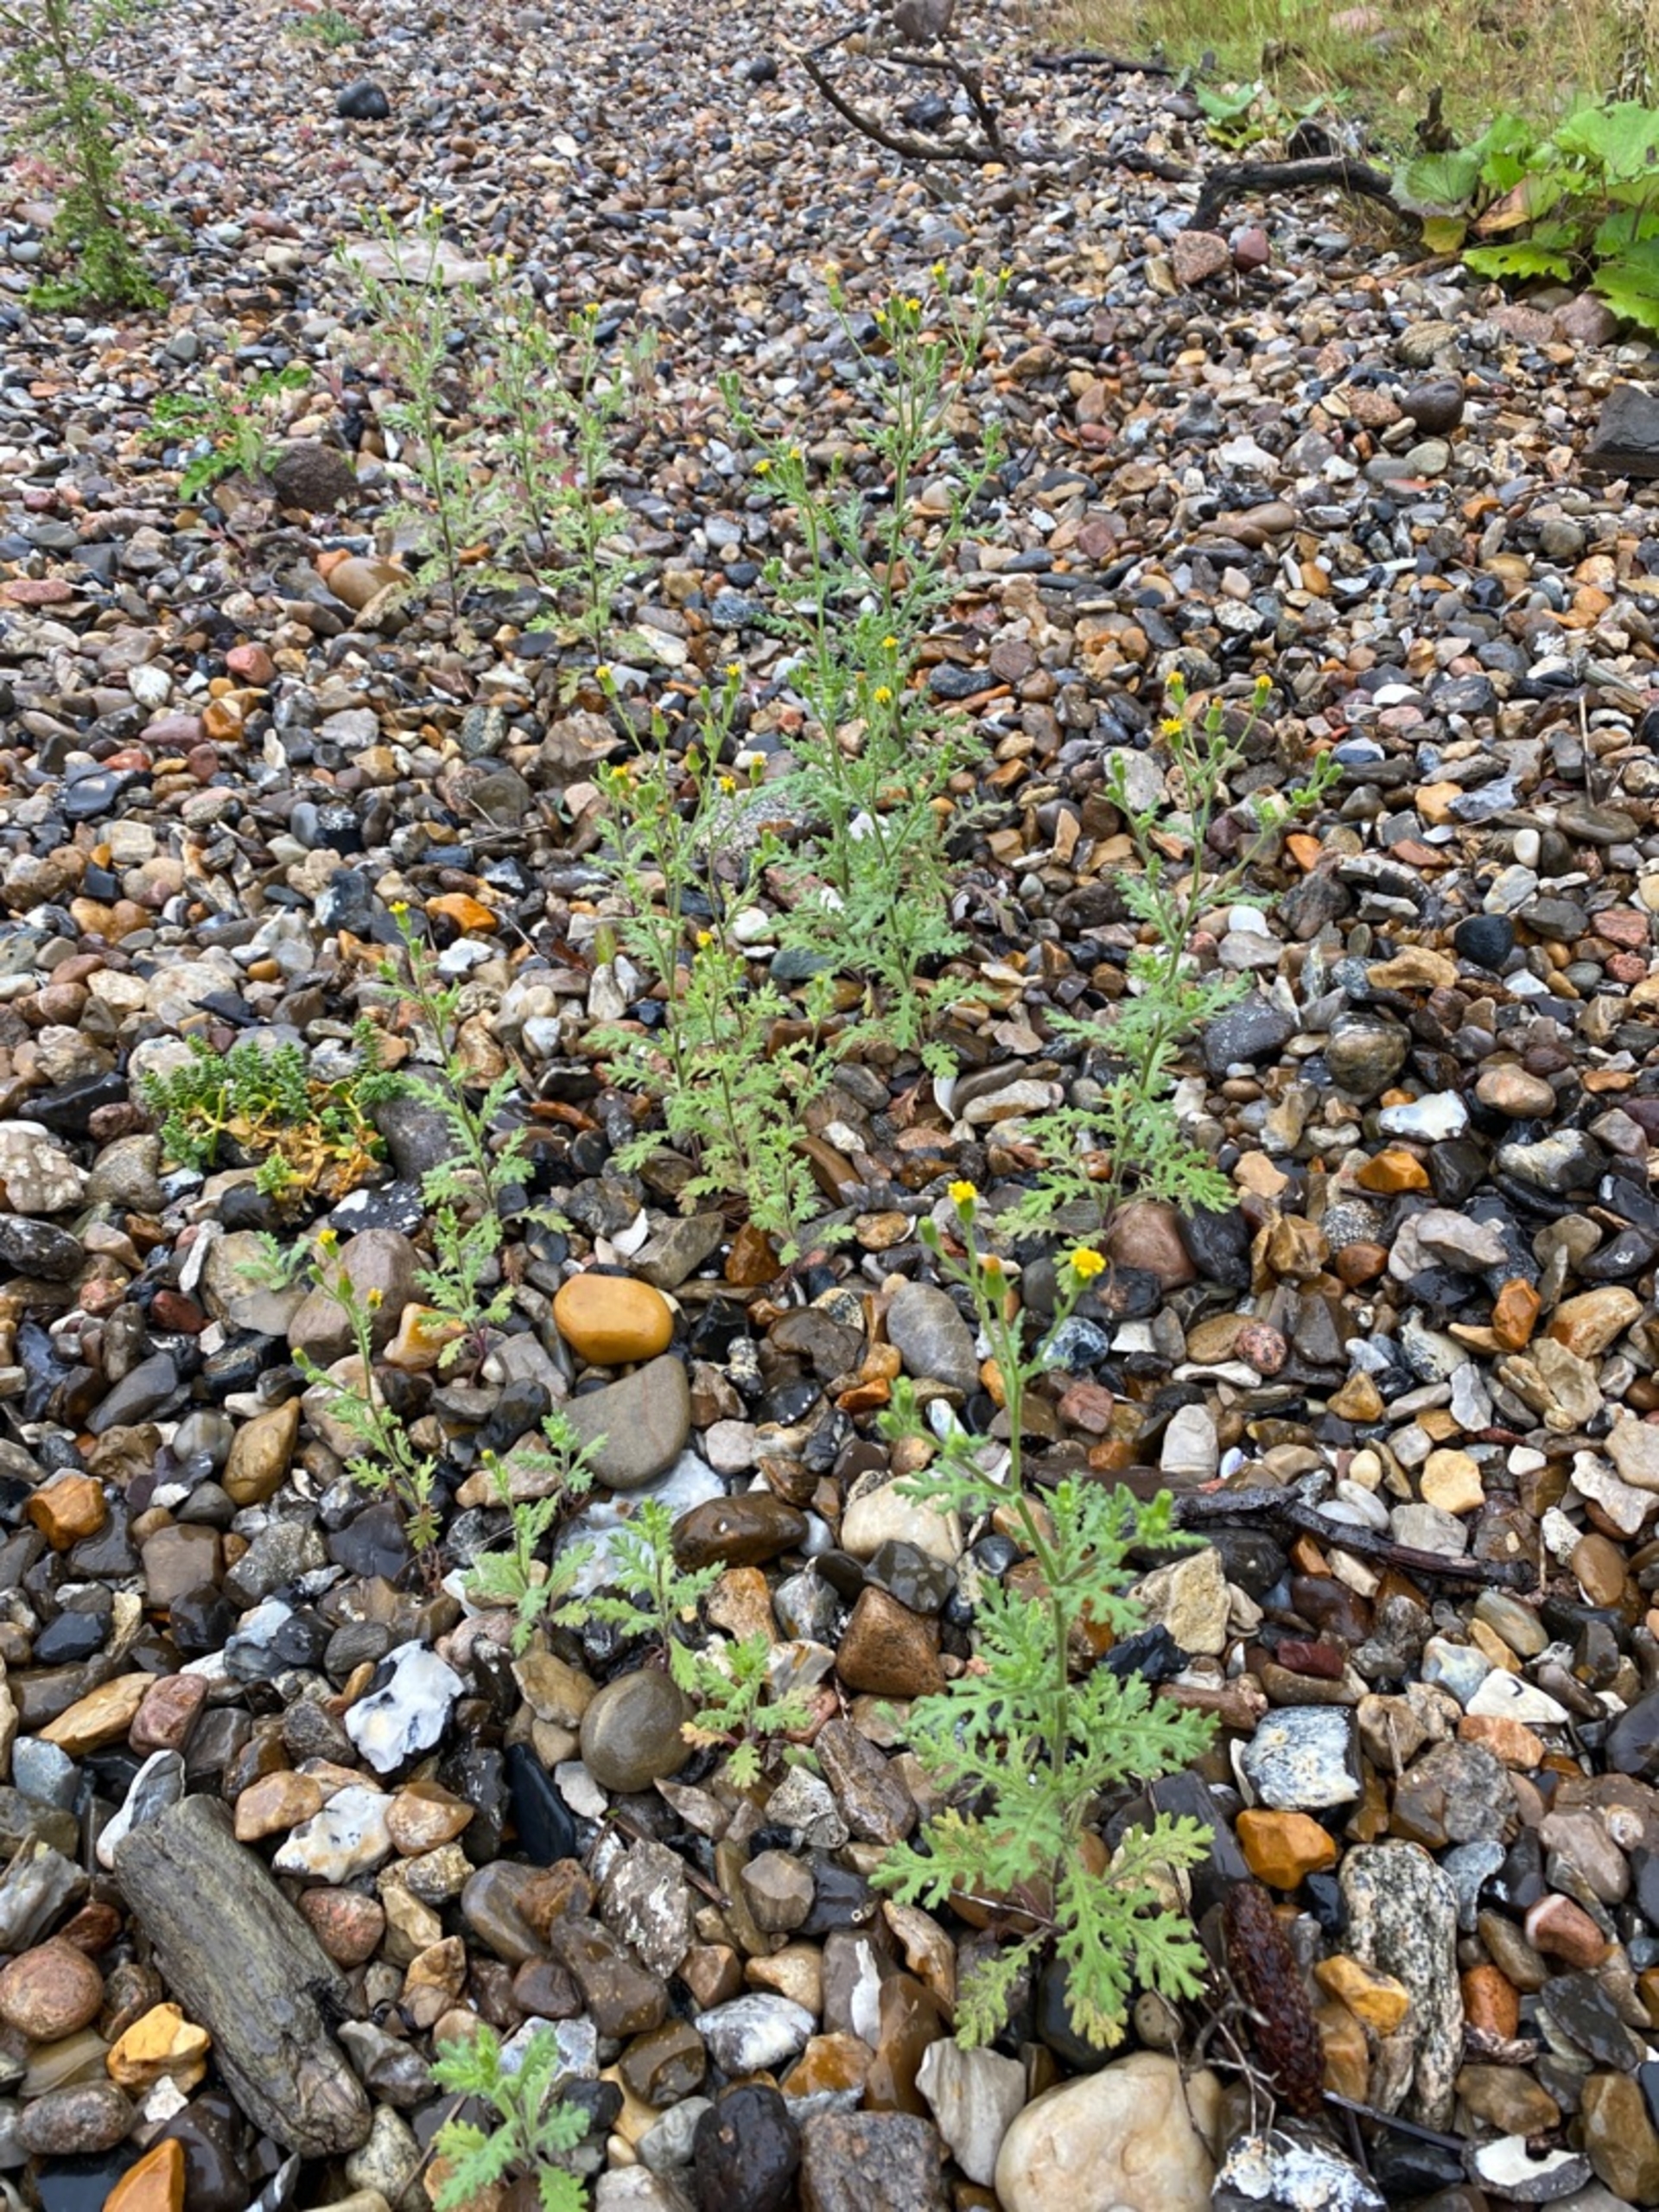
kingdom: Plantae
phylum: Tracheophyta
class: Magnoliopsida
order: Asterales
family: Asteraceae
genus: Senecio
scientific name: Senecio viscosus
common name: Klæbrig brandbæger
